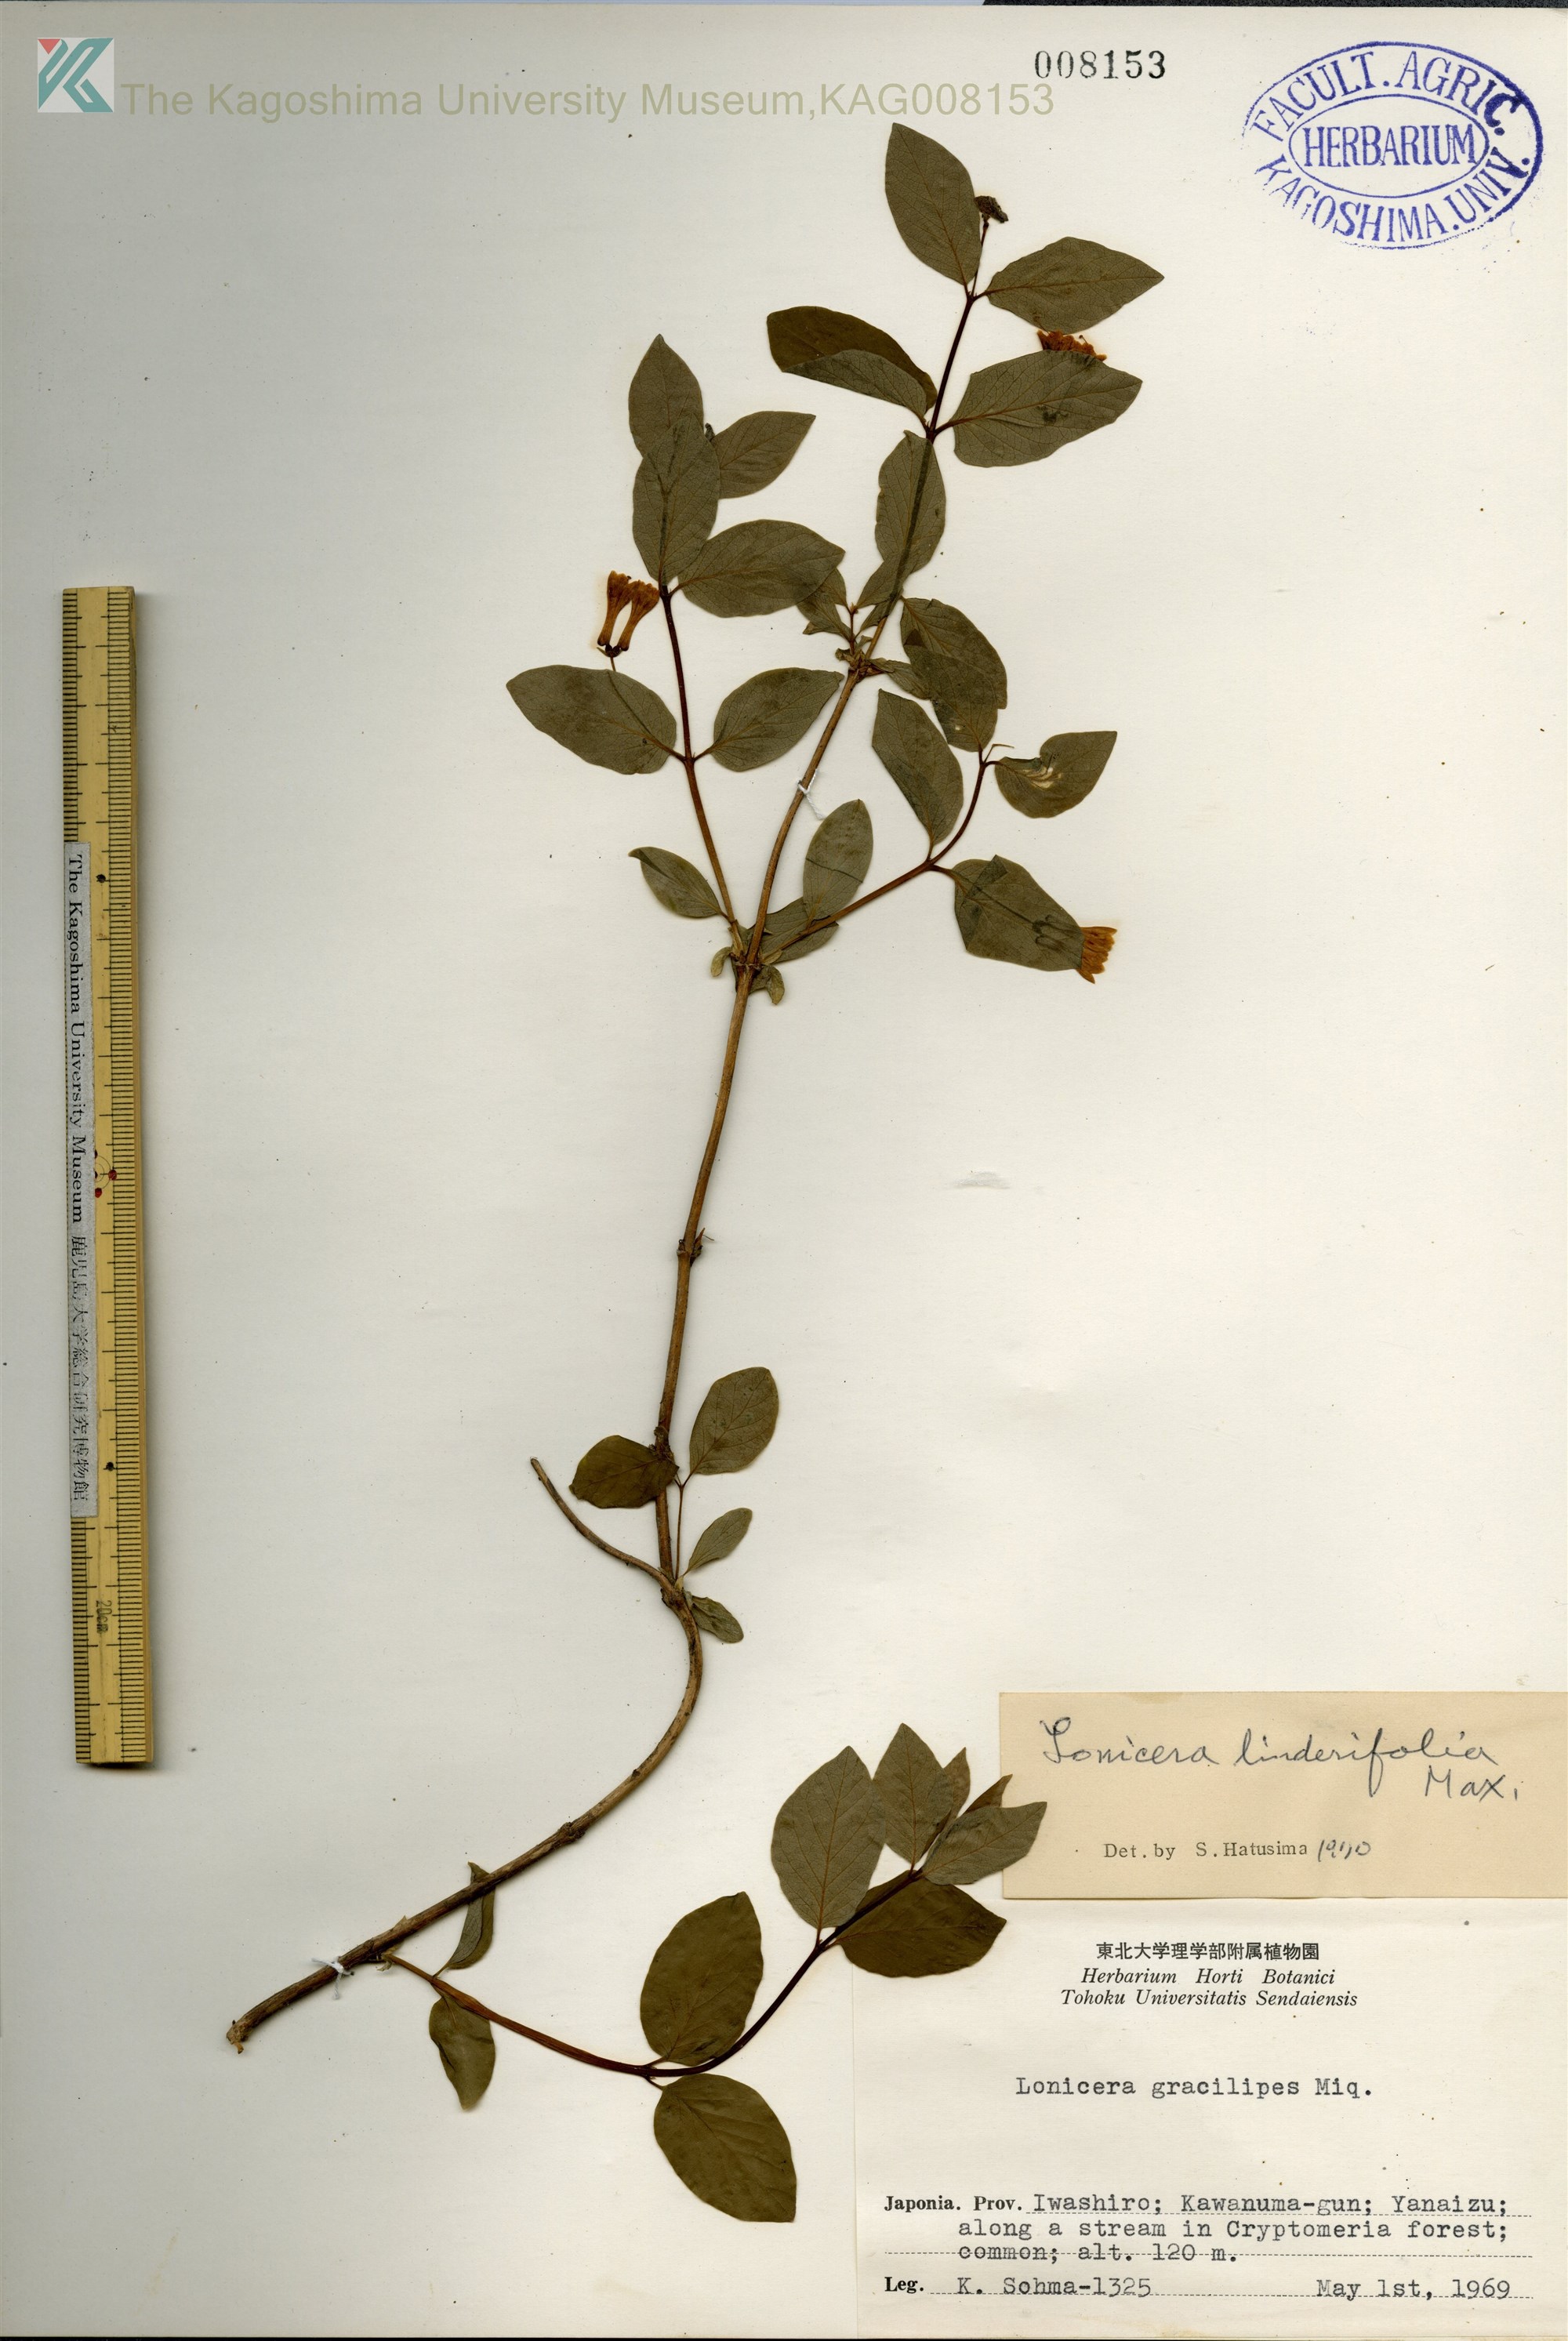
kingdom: Plantae
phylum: Tracheophyta
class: Magnoliopsida
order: Dipsacales
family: Caprifoliaceae
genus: Lonicera
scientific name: Lonicera linderifolia
